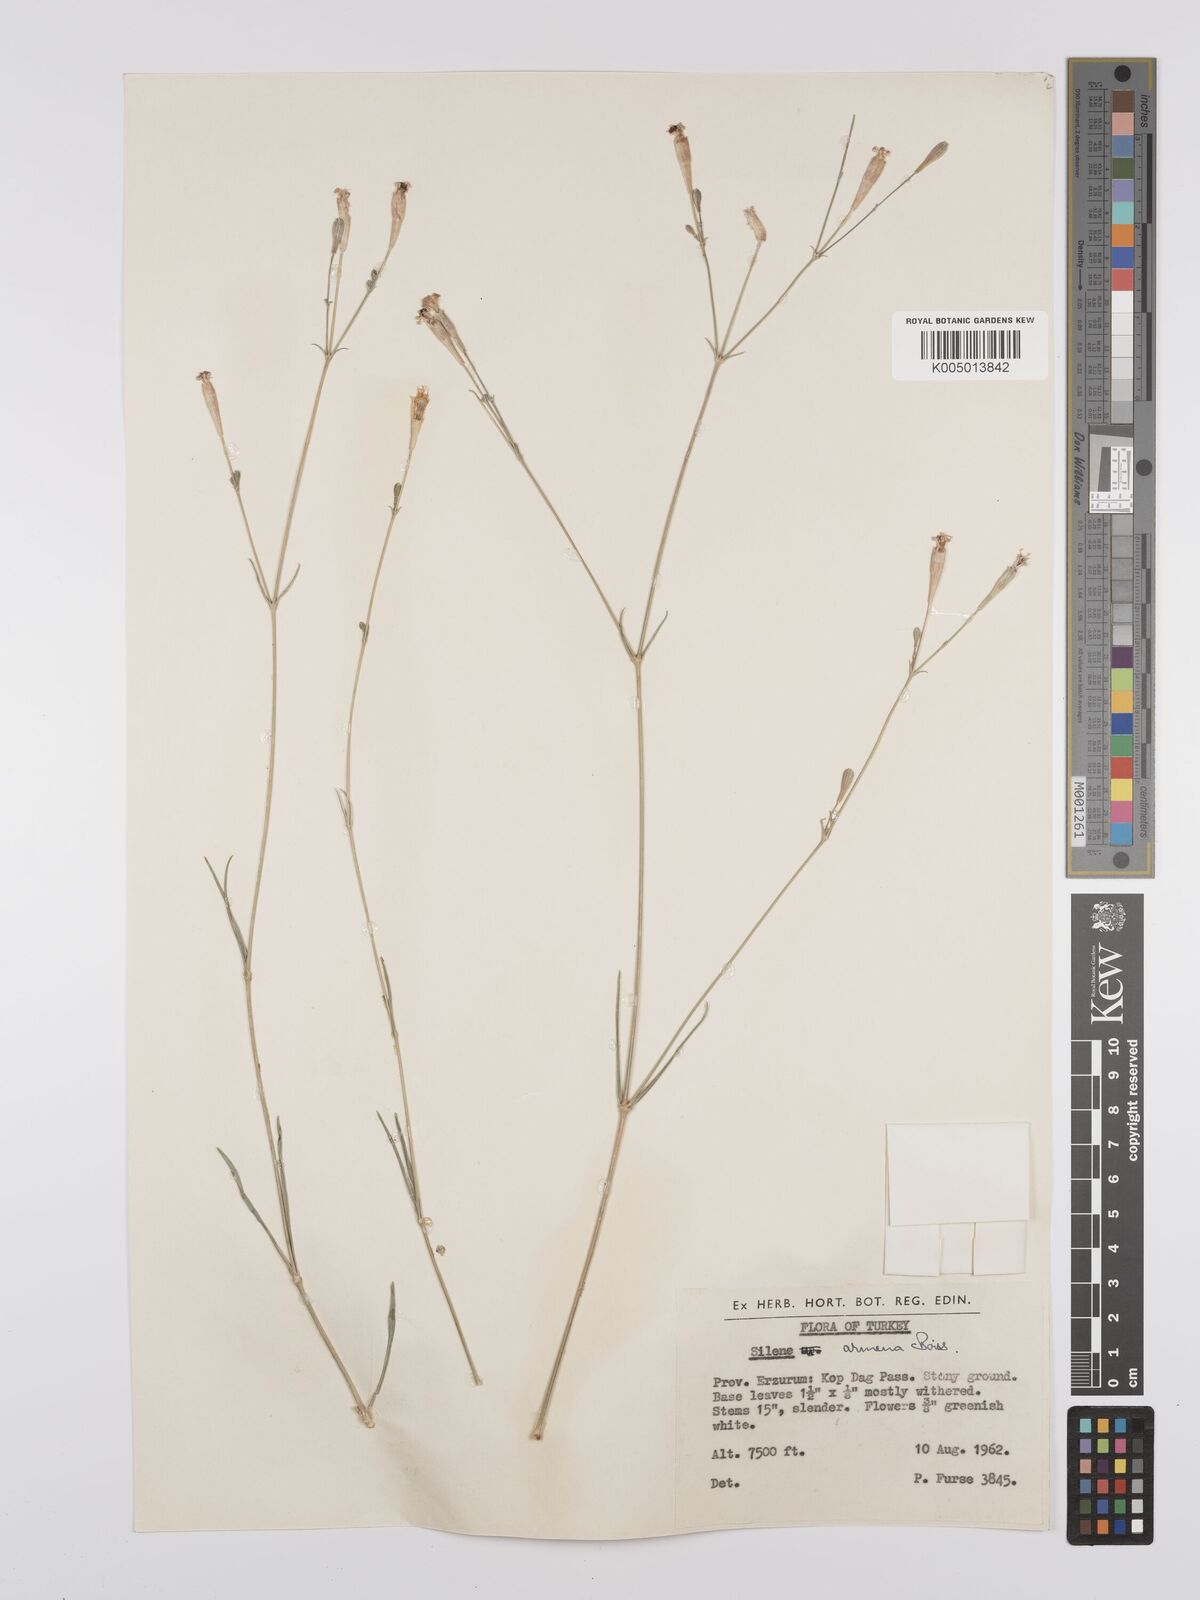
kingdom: Plantae
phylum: Tracheophyta
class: Magnoliopsida
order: Caryophyllales
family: Caryophyllaceae
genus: Silene
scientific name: Silene
